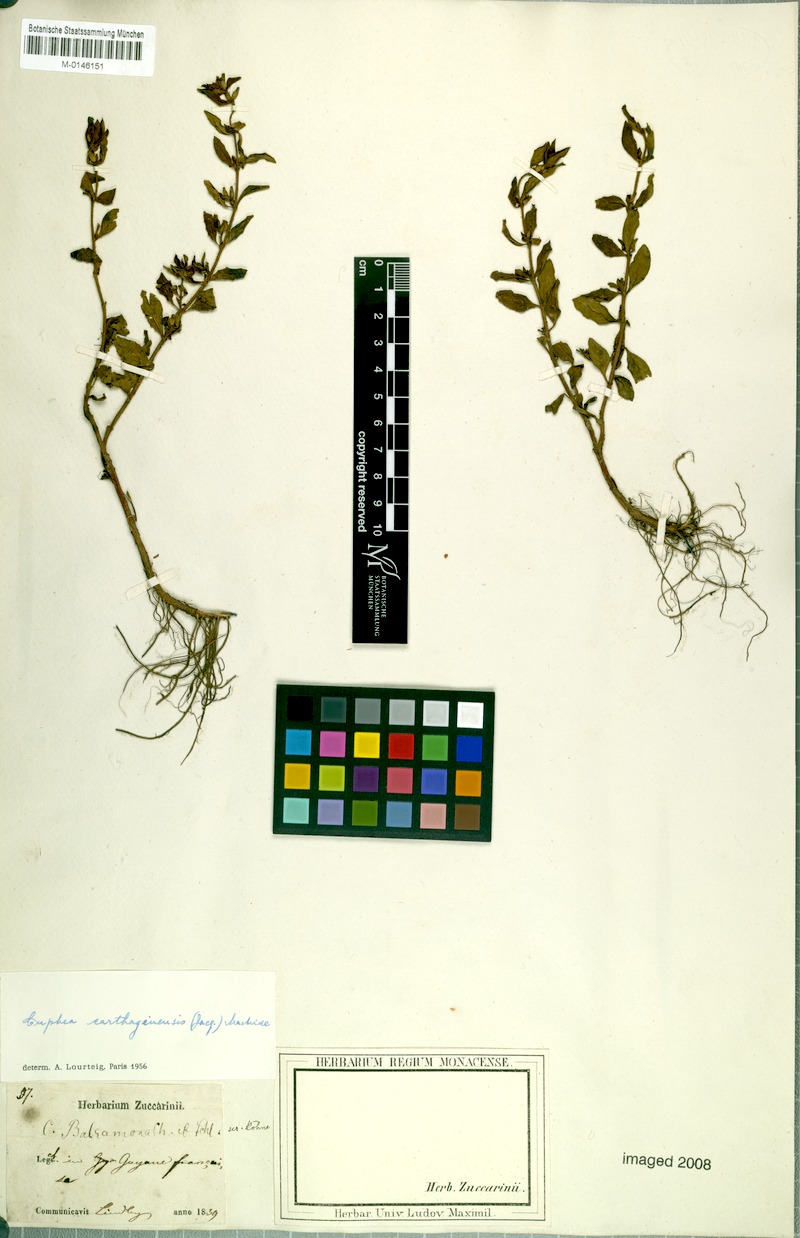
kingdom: Plantae
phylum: Tracheophyta
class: Magnoliopsida
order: Myrtales
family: Lythraceae
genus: Cuphea
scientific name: Cuphea carthagenensis
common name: Colombian waxweed
